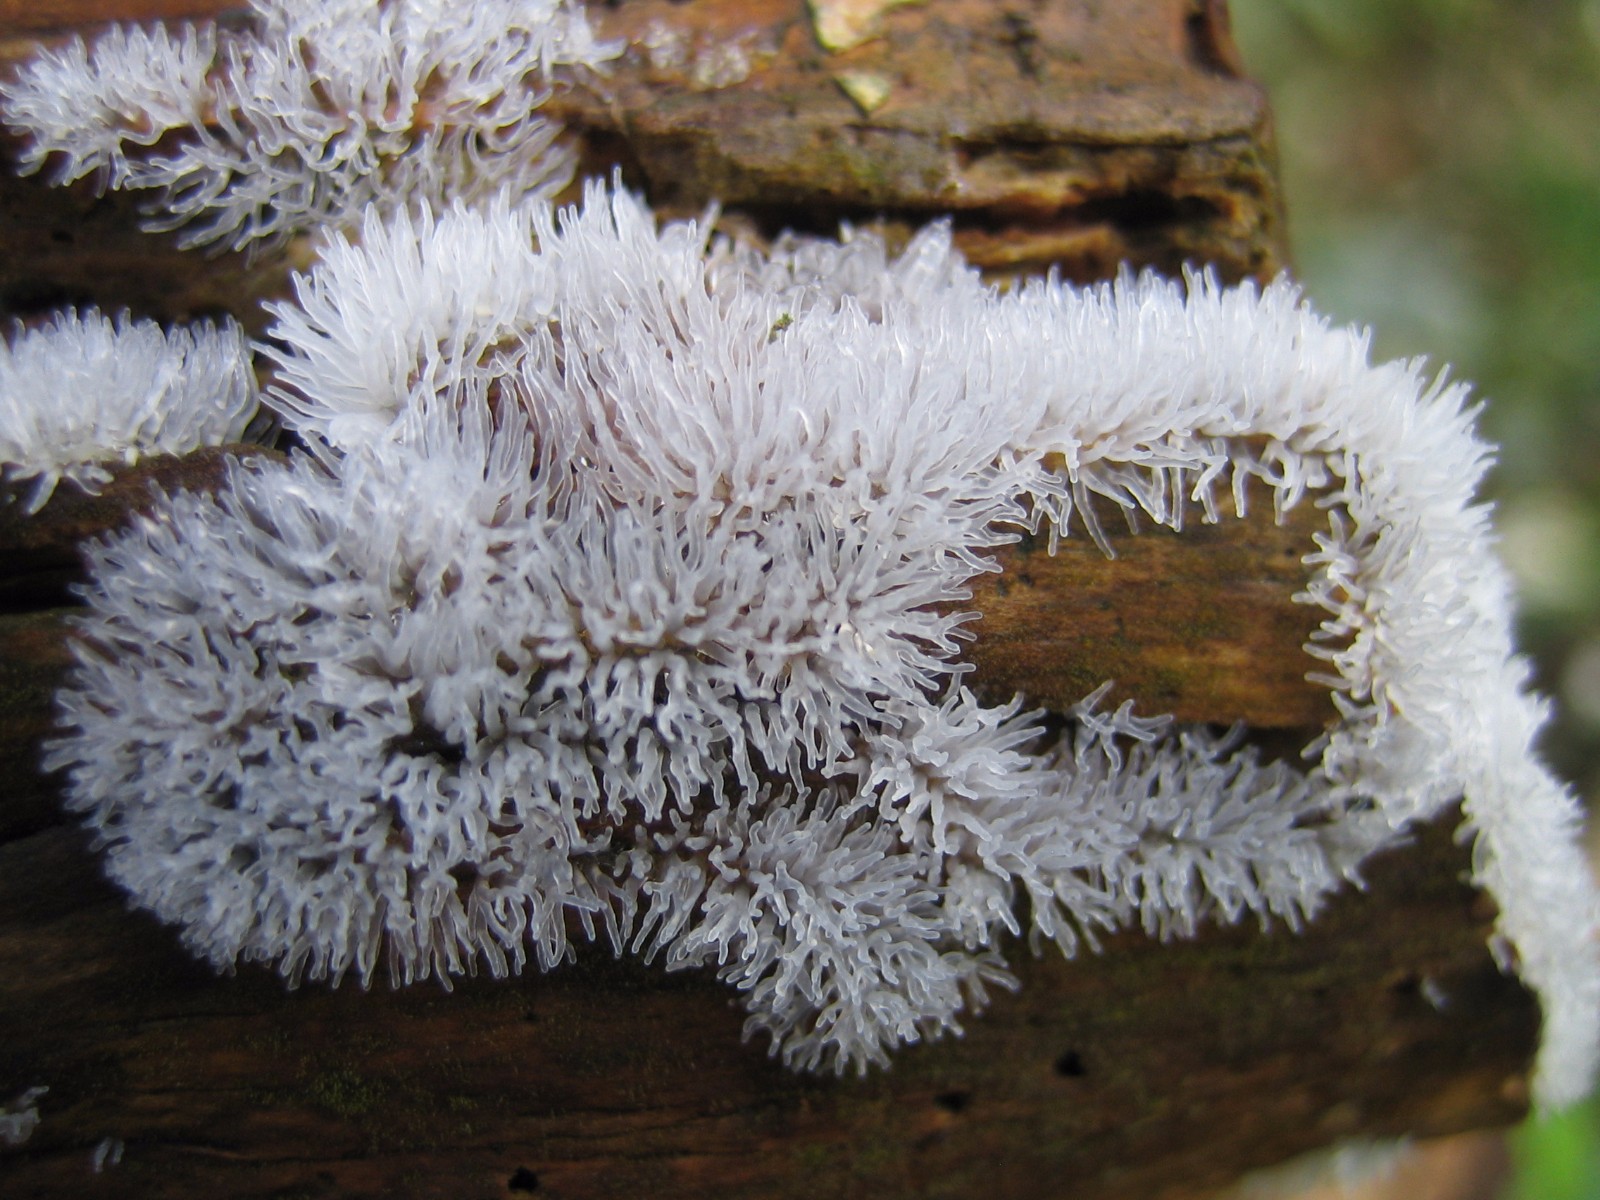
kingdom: Protozoa
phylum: Mycetozoa
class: Protosteliomycetes
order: Ceratiomyxales
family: Ceratiomyxaceae
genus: Ceratiomyxa
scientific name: Ceratiomyxa fruticulosa
